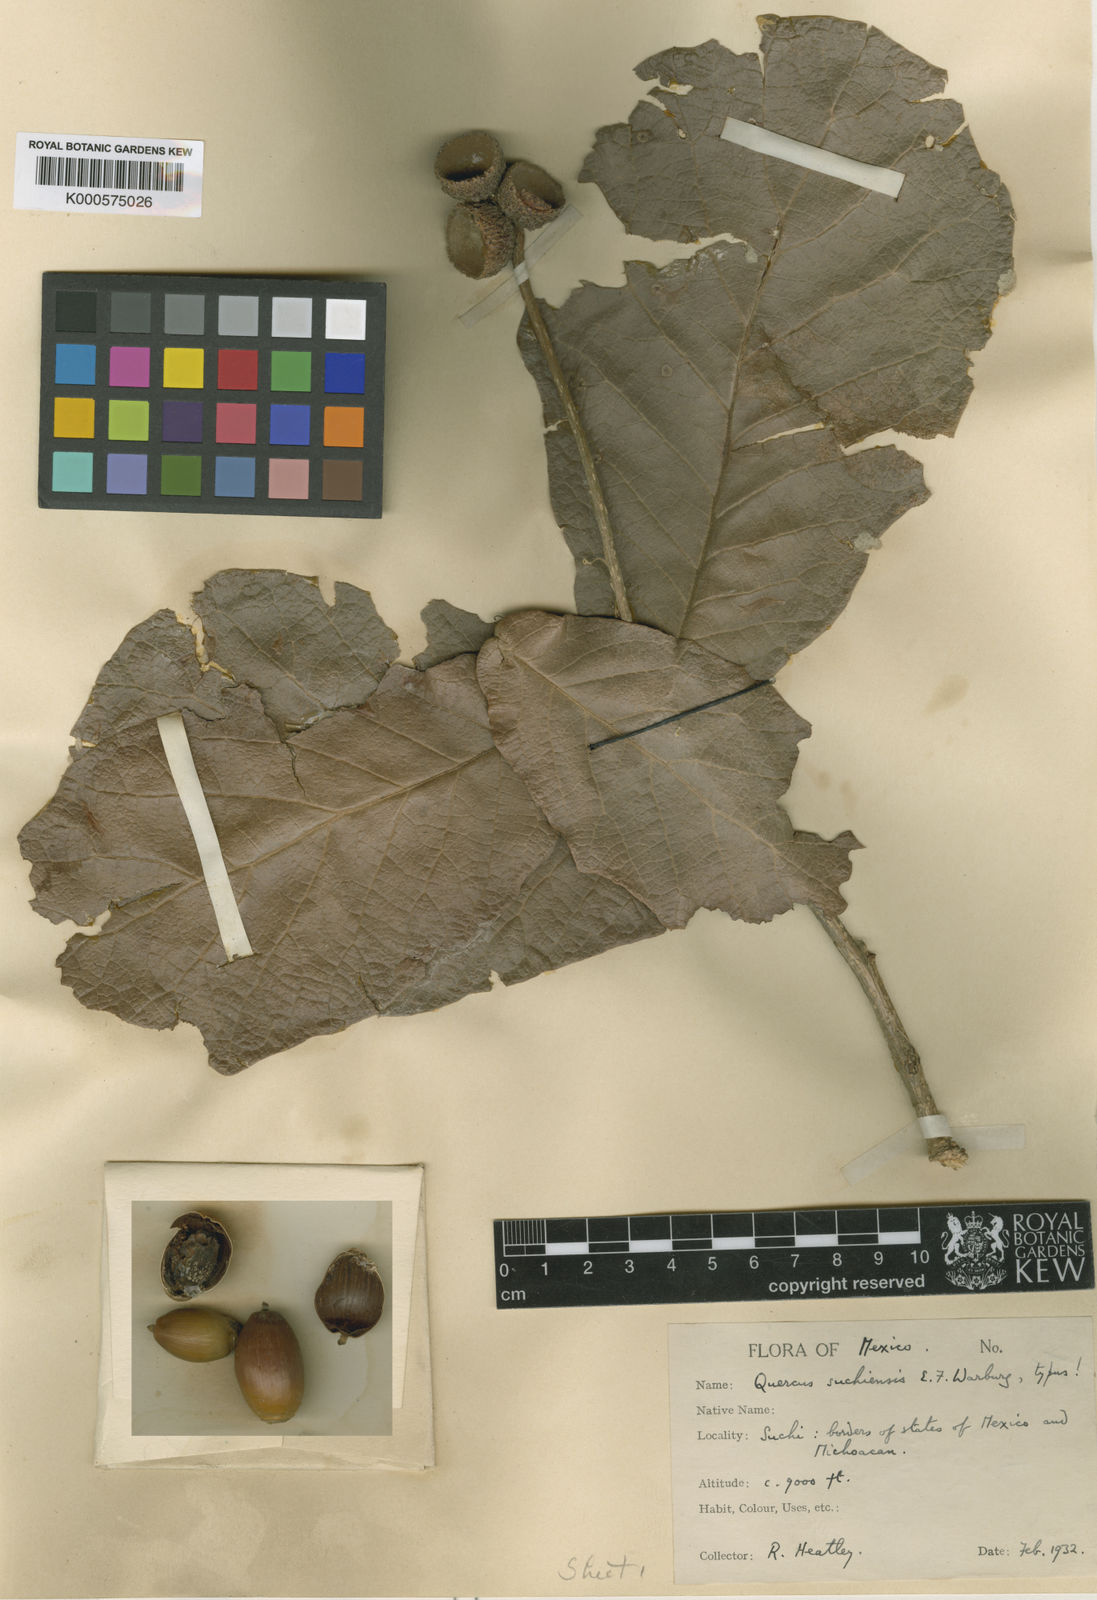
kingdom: Plantae
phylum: Tracheophyta
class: Magnoliopsida
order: Fagales
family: Fagaceae
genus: Quercus
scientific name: Quercus rugosa
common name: Netleaf oak
